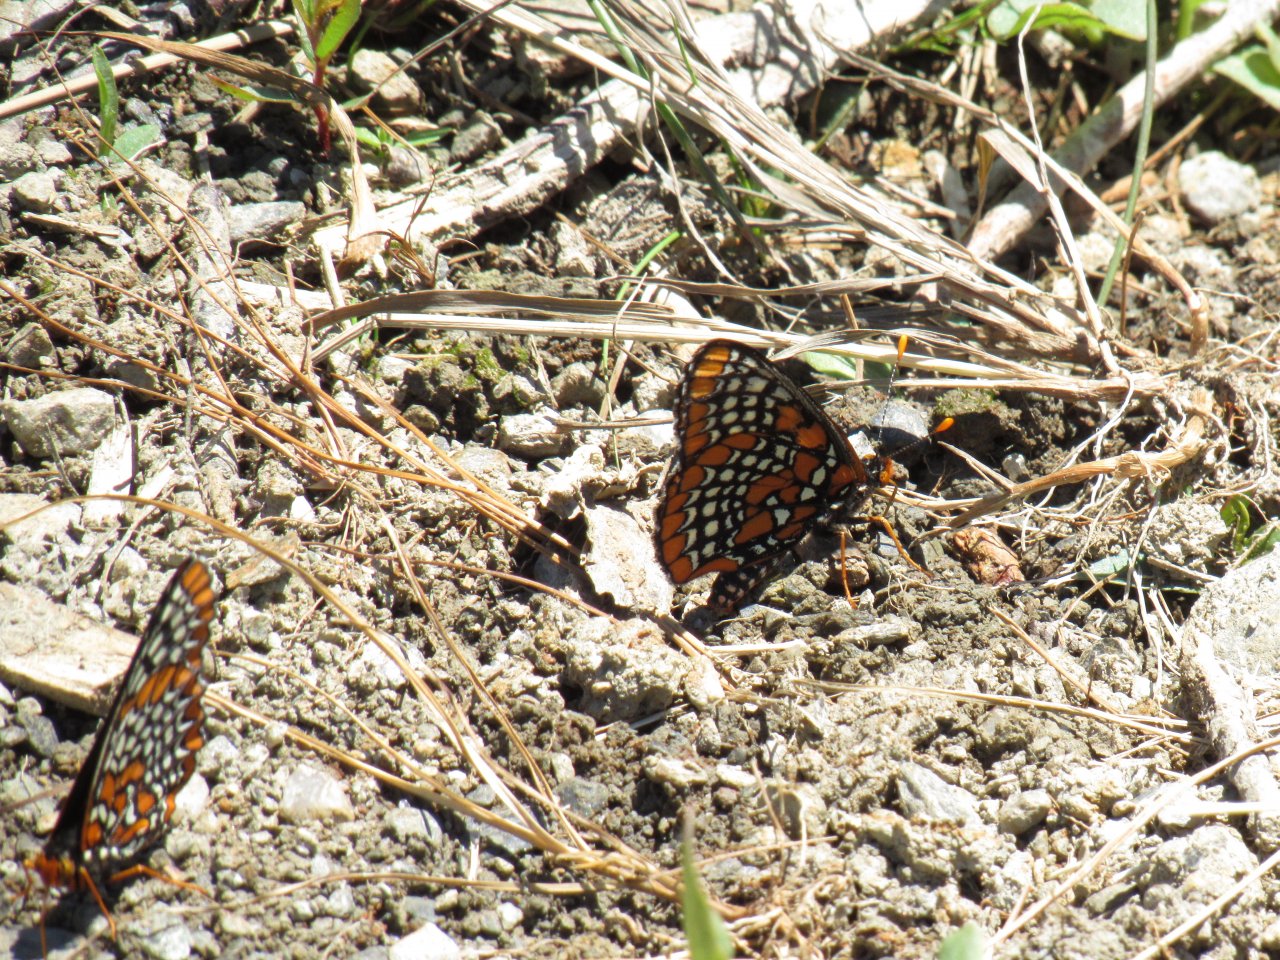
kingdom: Animalia
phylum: Arthropoda
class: Insecta
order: Lepidoptera
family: Nymphalidae
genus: Euphydryas
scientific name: Euphydryas phaeton
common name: Baltimore Checkerspot
